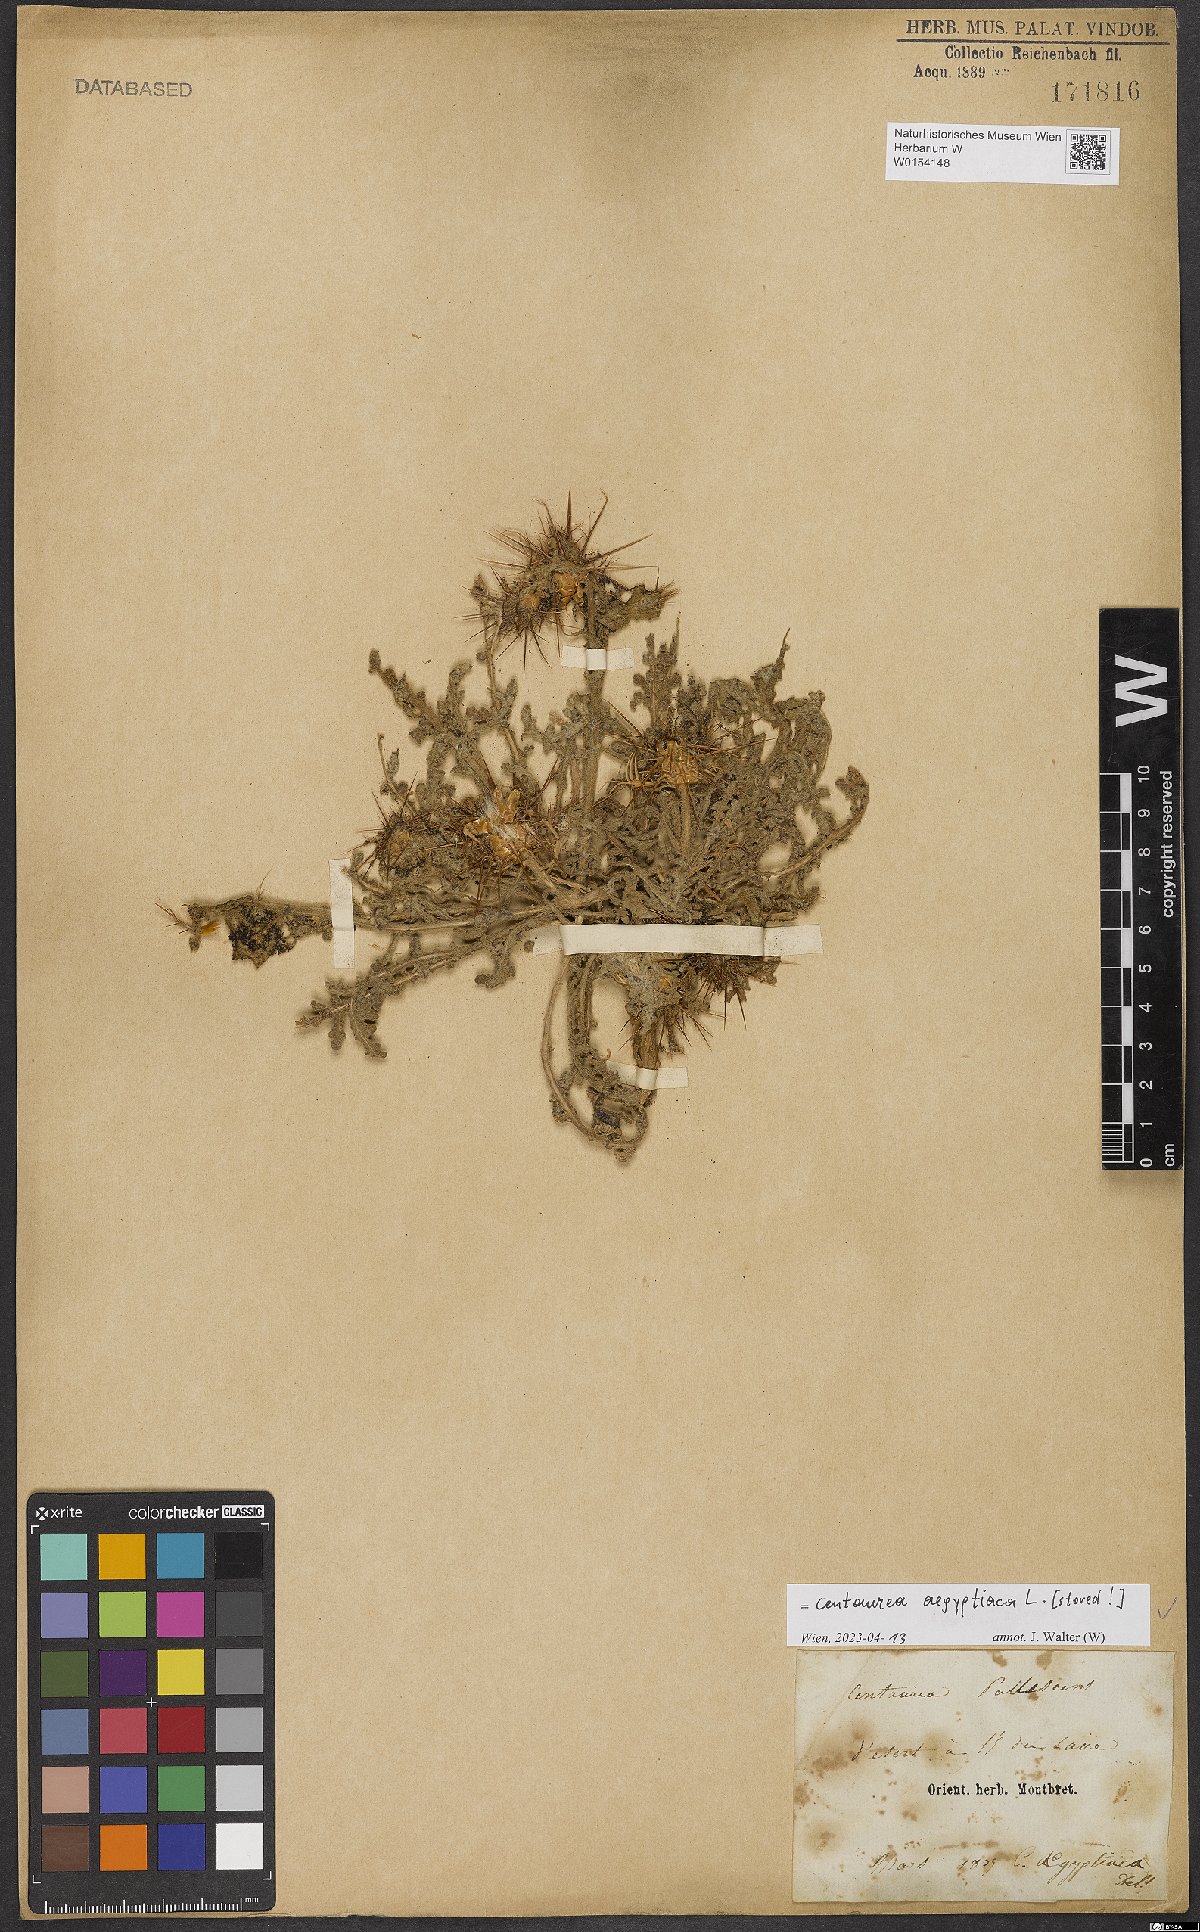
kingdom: Plantae
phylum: Tracheophyta
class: Magnoliopsida
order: Asterales
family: Asteraceae
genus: Centaurea
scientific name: Centaurea aegyptiaca
